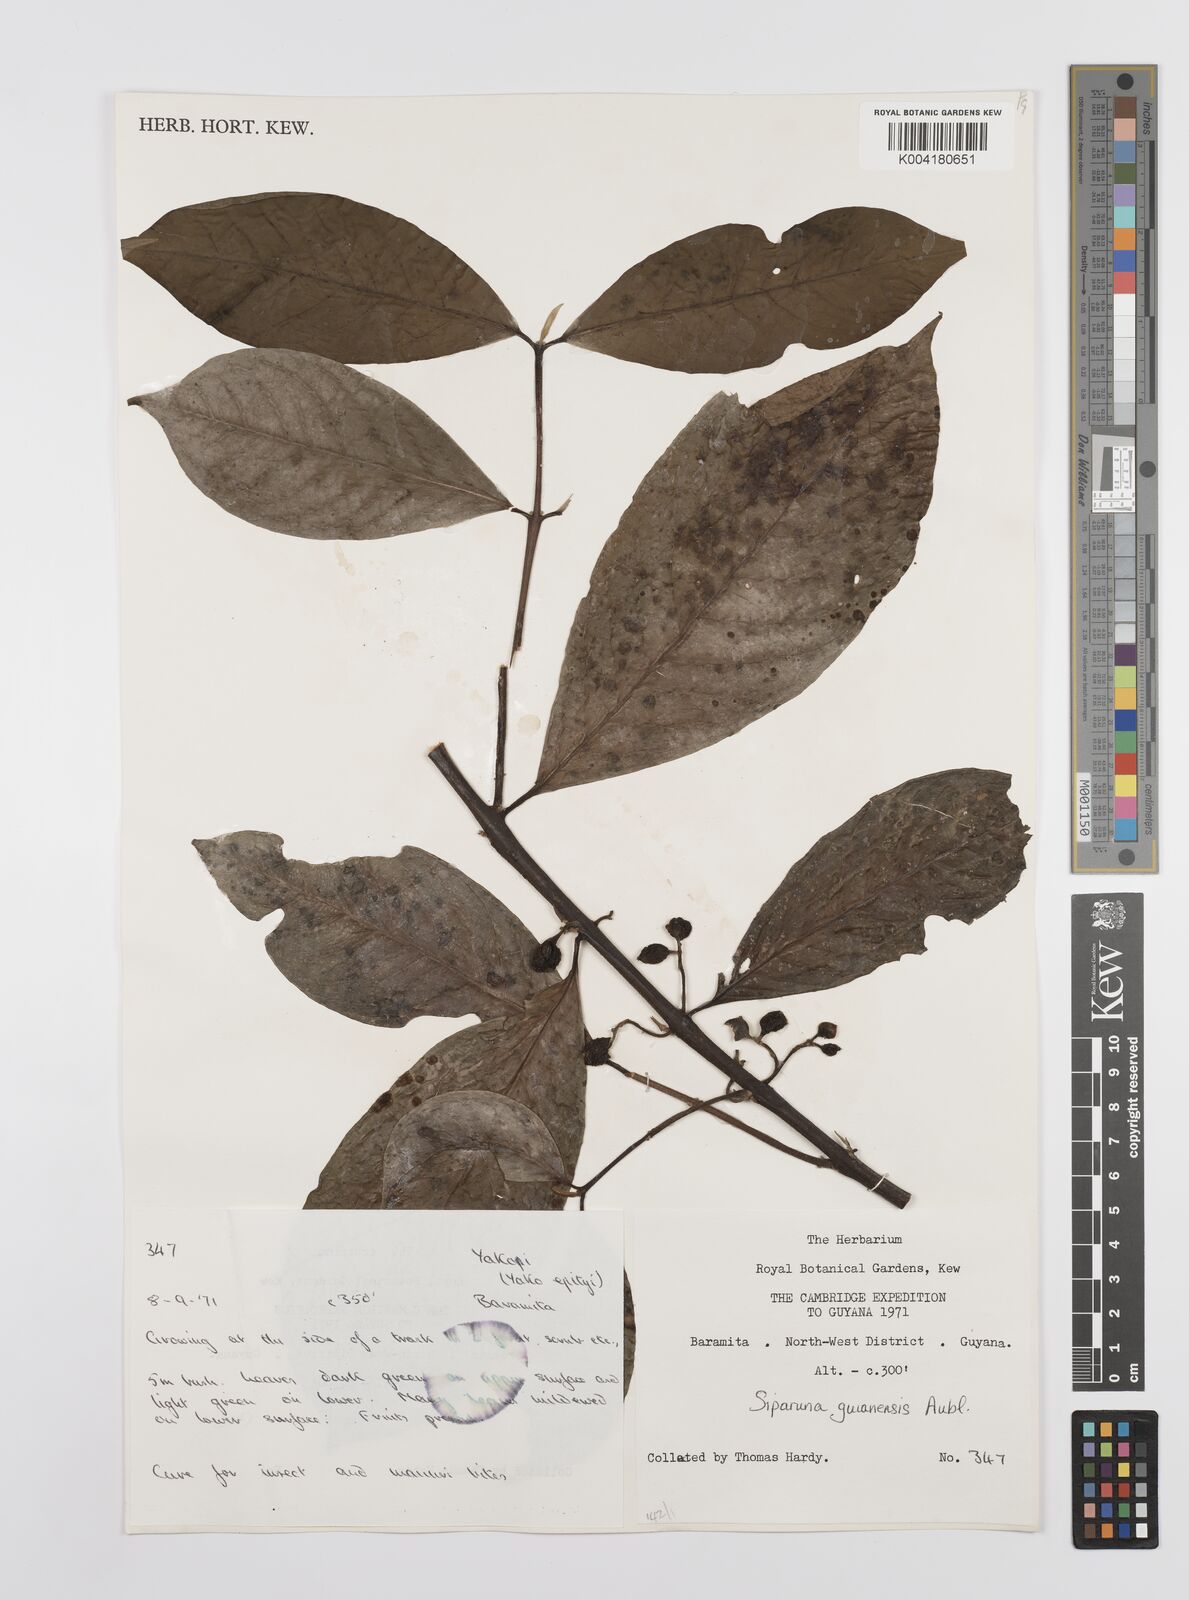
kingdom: Plantae
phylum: Tracheophyta
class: Magnoliopsida
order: Laurales
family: Siparunaceae
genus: Siparuna
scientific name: Siparuna guianensis
